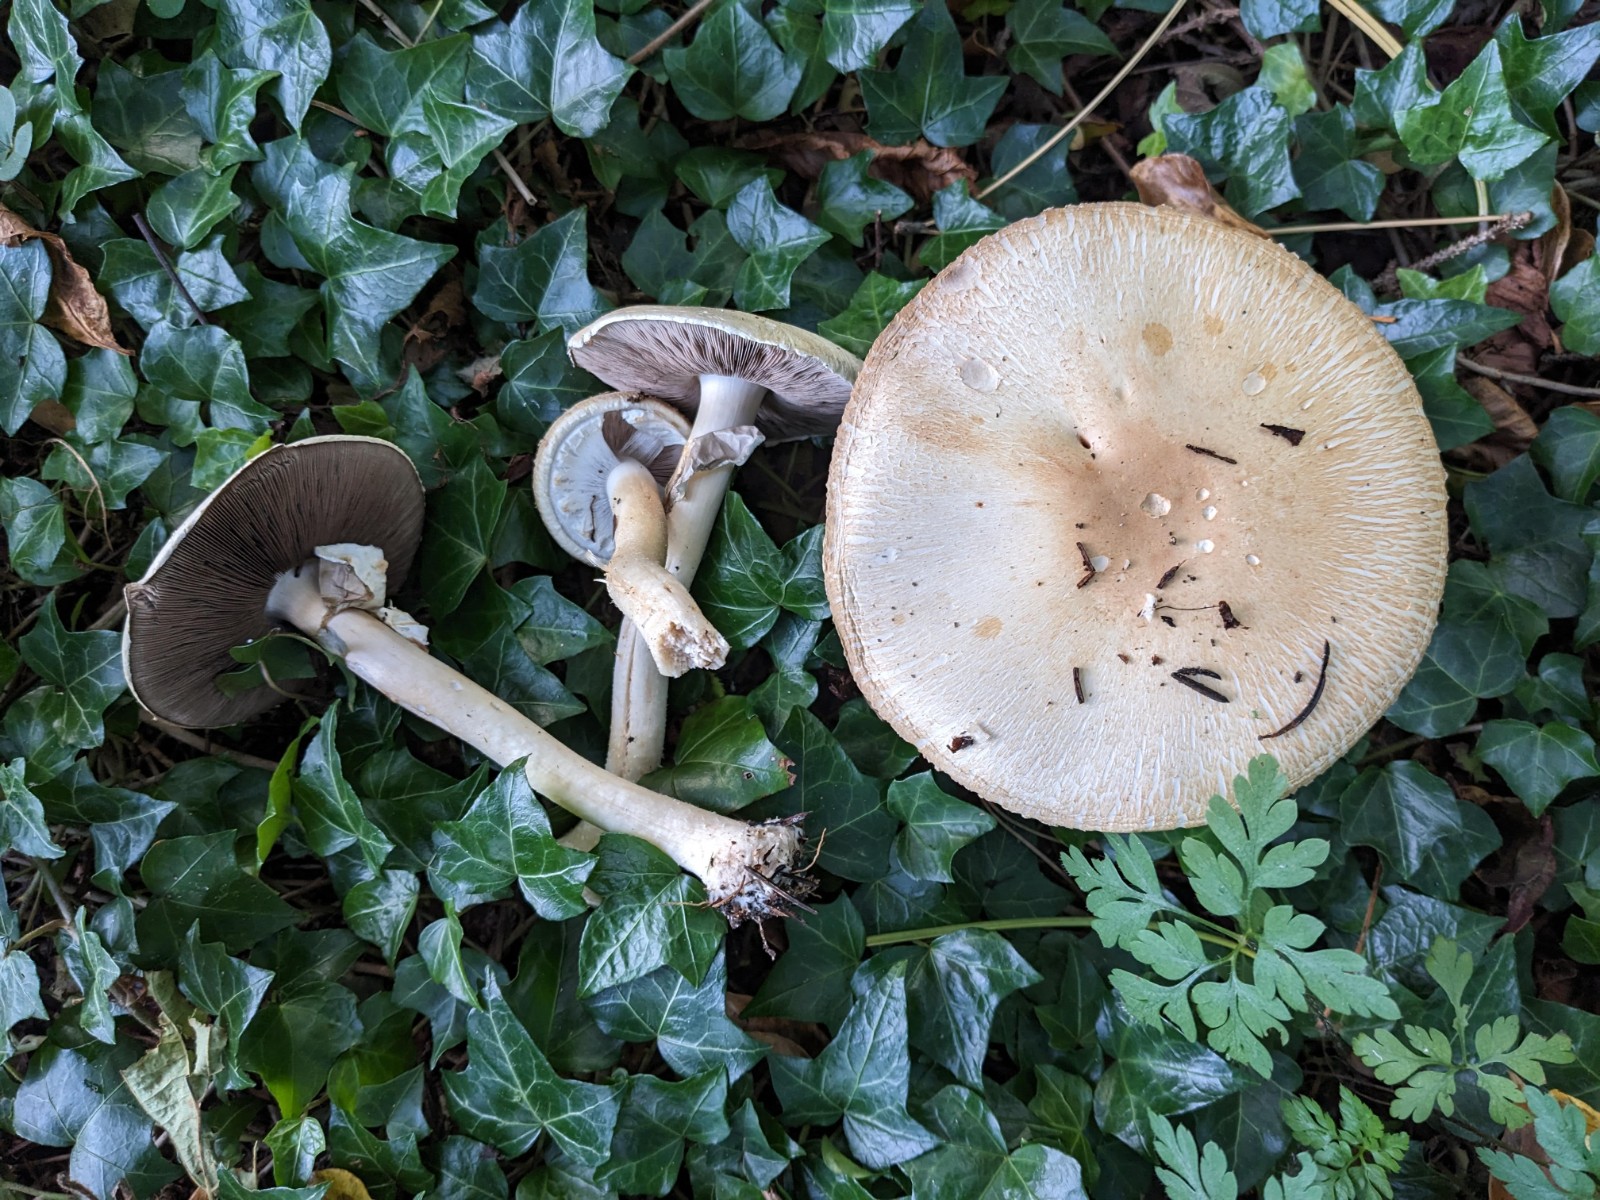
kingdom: Fungi
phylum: Basidiomycota
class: Agaricomycetes
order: Agaricales
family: Agaricaceae
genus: Agaricus
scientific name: Agaricus macrocarpus
